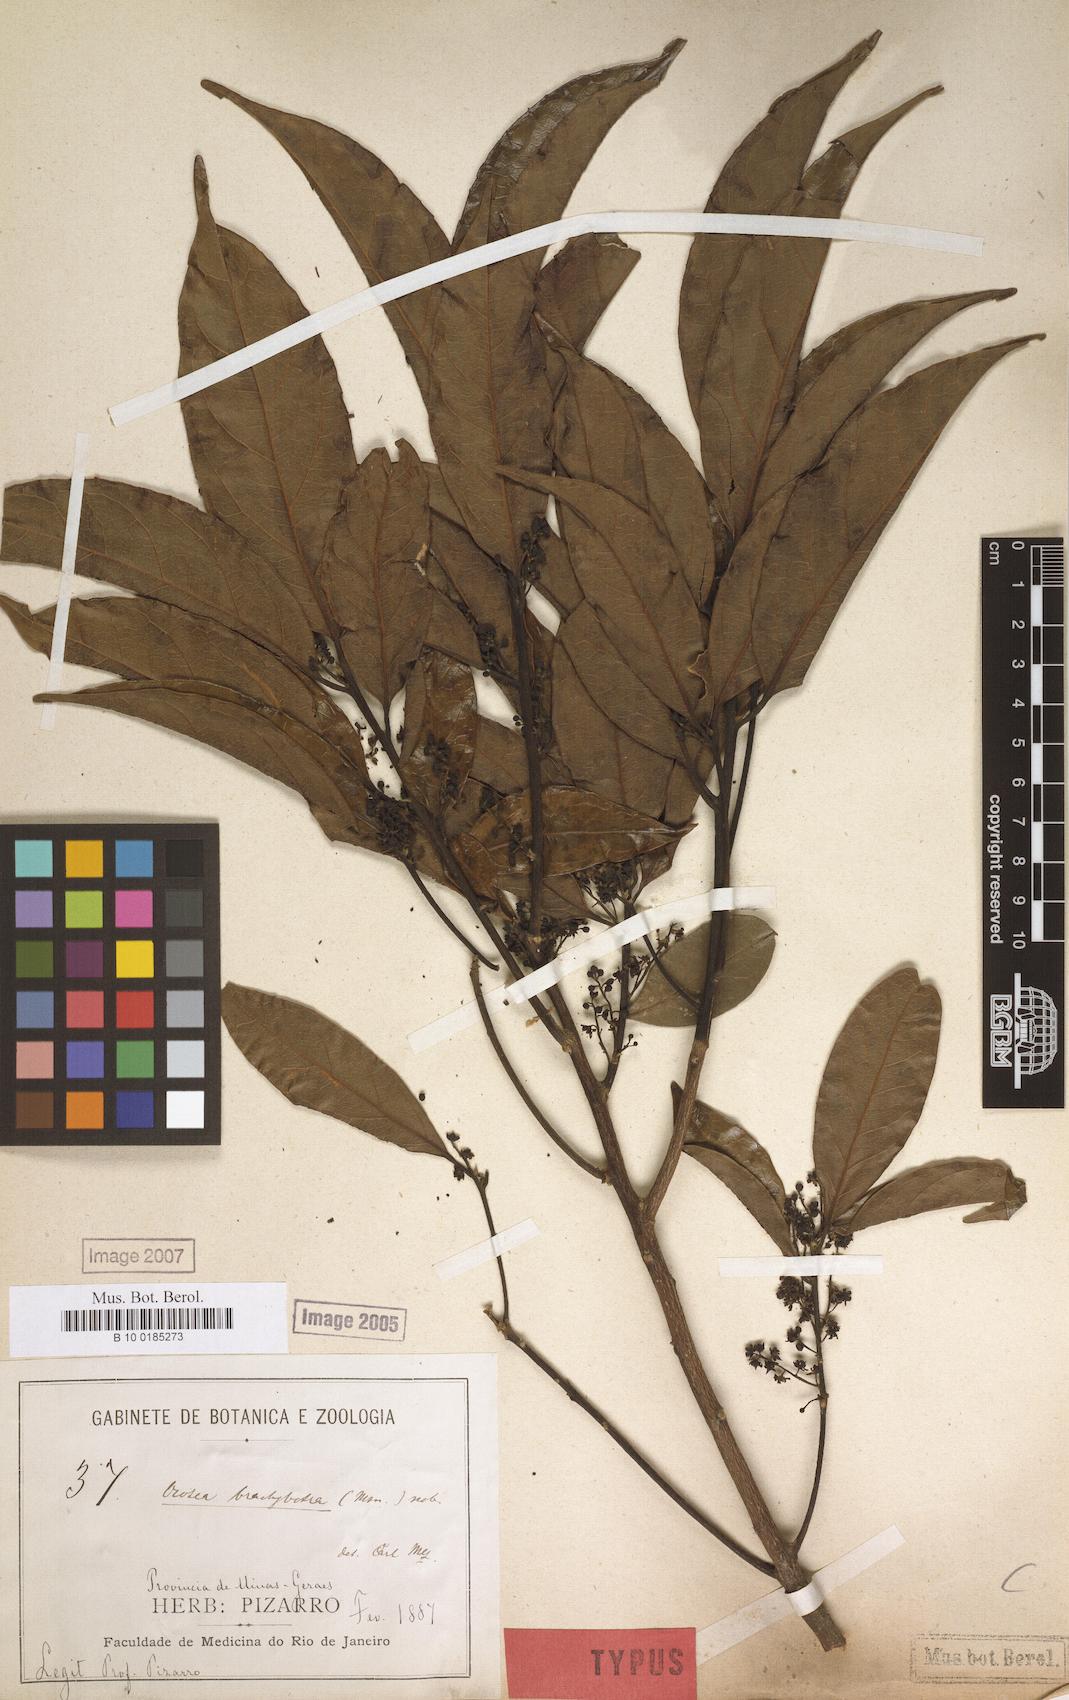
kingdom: Plantae
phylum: Tracheophyta
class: Magnoliopsida
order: Laurales
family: Lauraceae
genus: Ocotea
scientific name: Ocotea brachybotra
